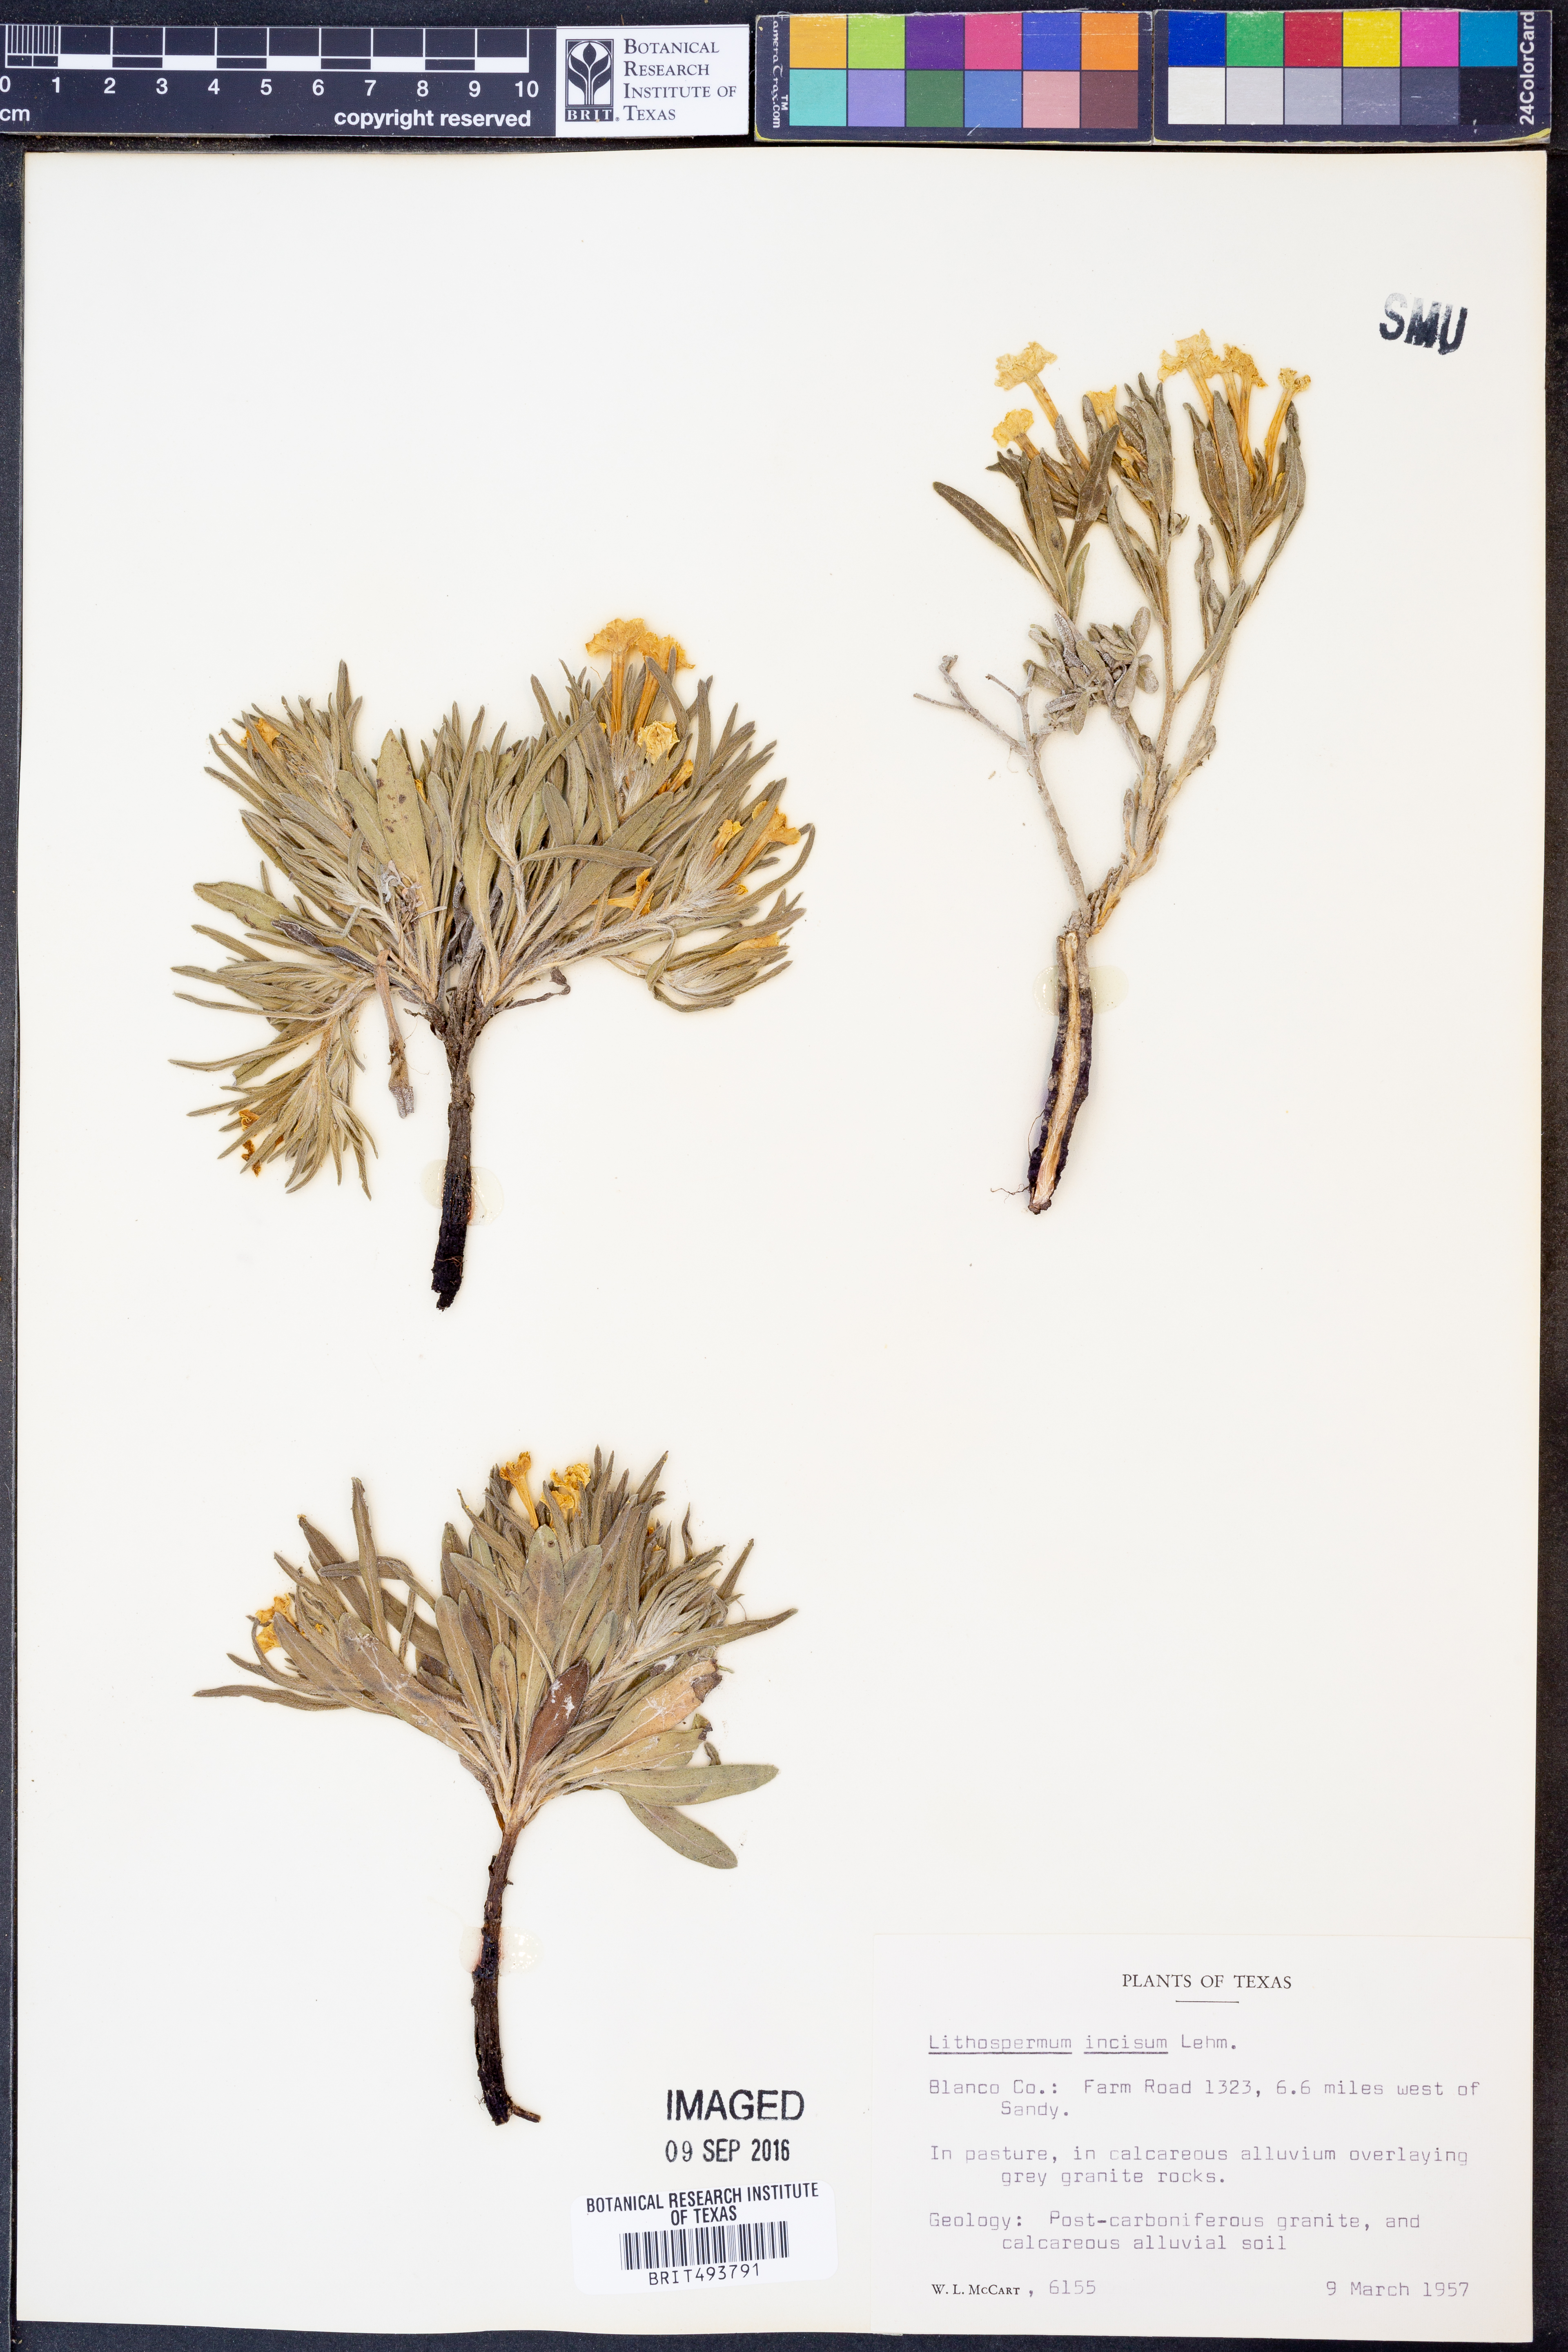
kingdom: Plantae
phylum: Tracheophyta
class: Magnoliopsida
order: Boraginales
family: Boraginaceae
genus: Lithospermum
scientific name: Lithospermum incisum
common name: Fringed gromwell
